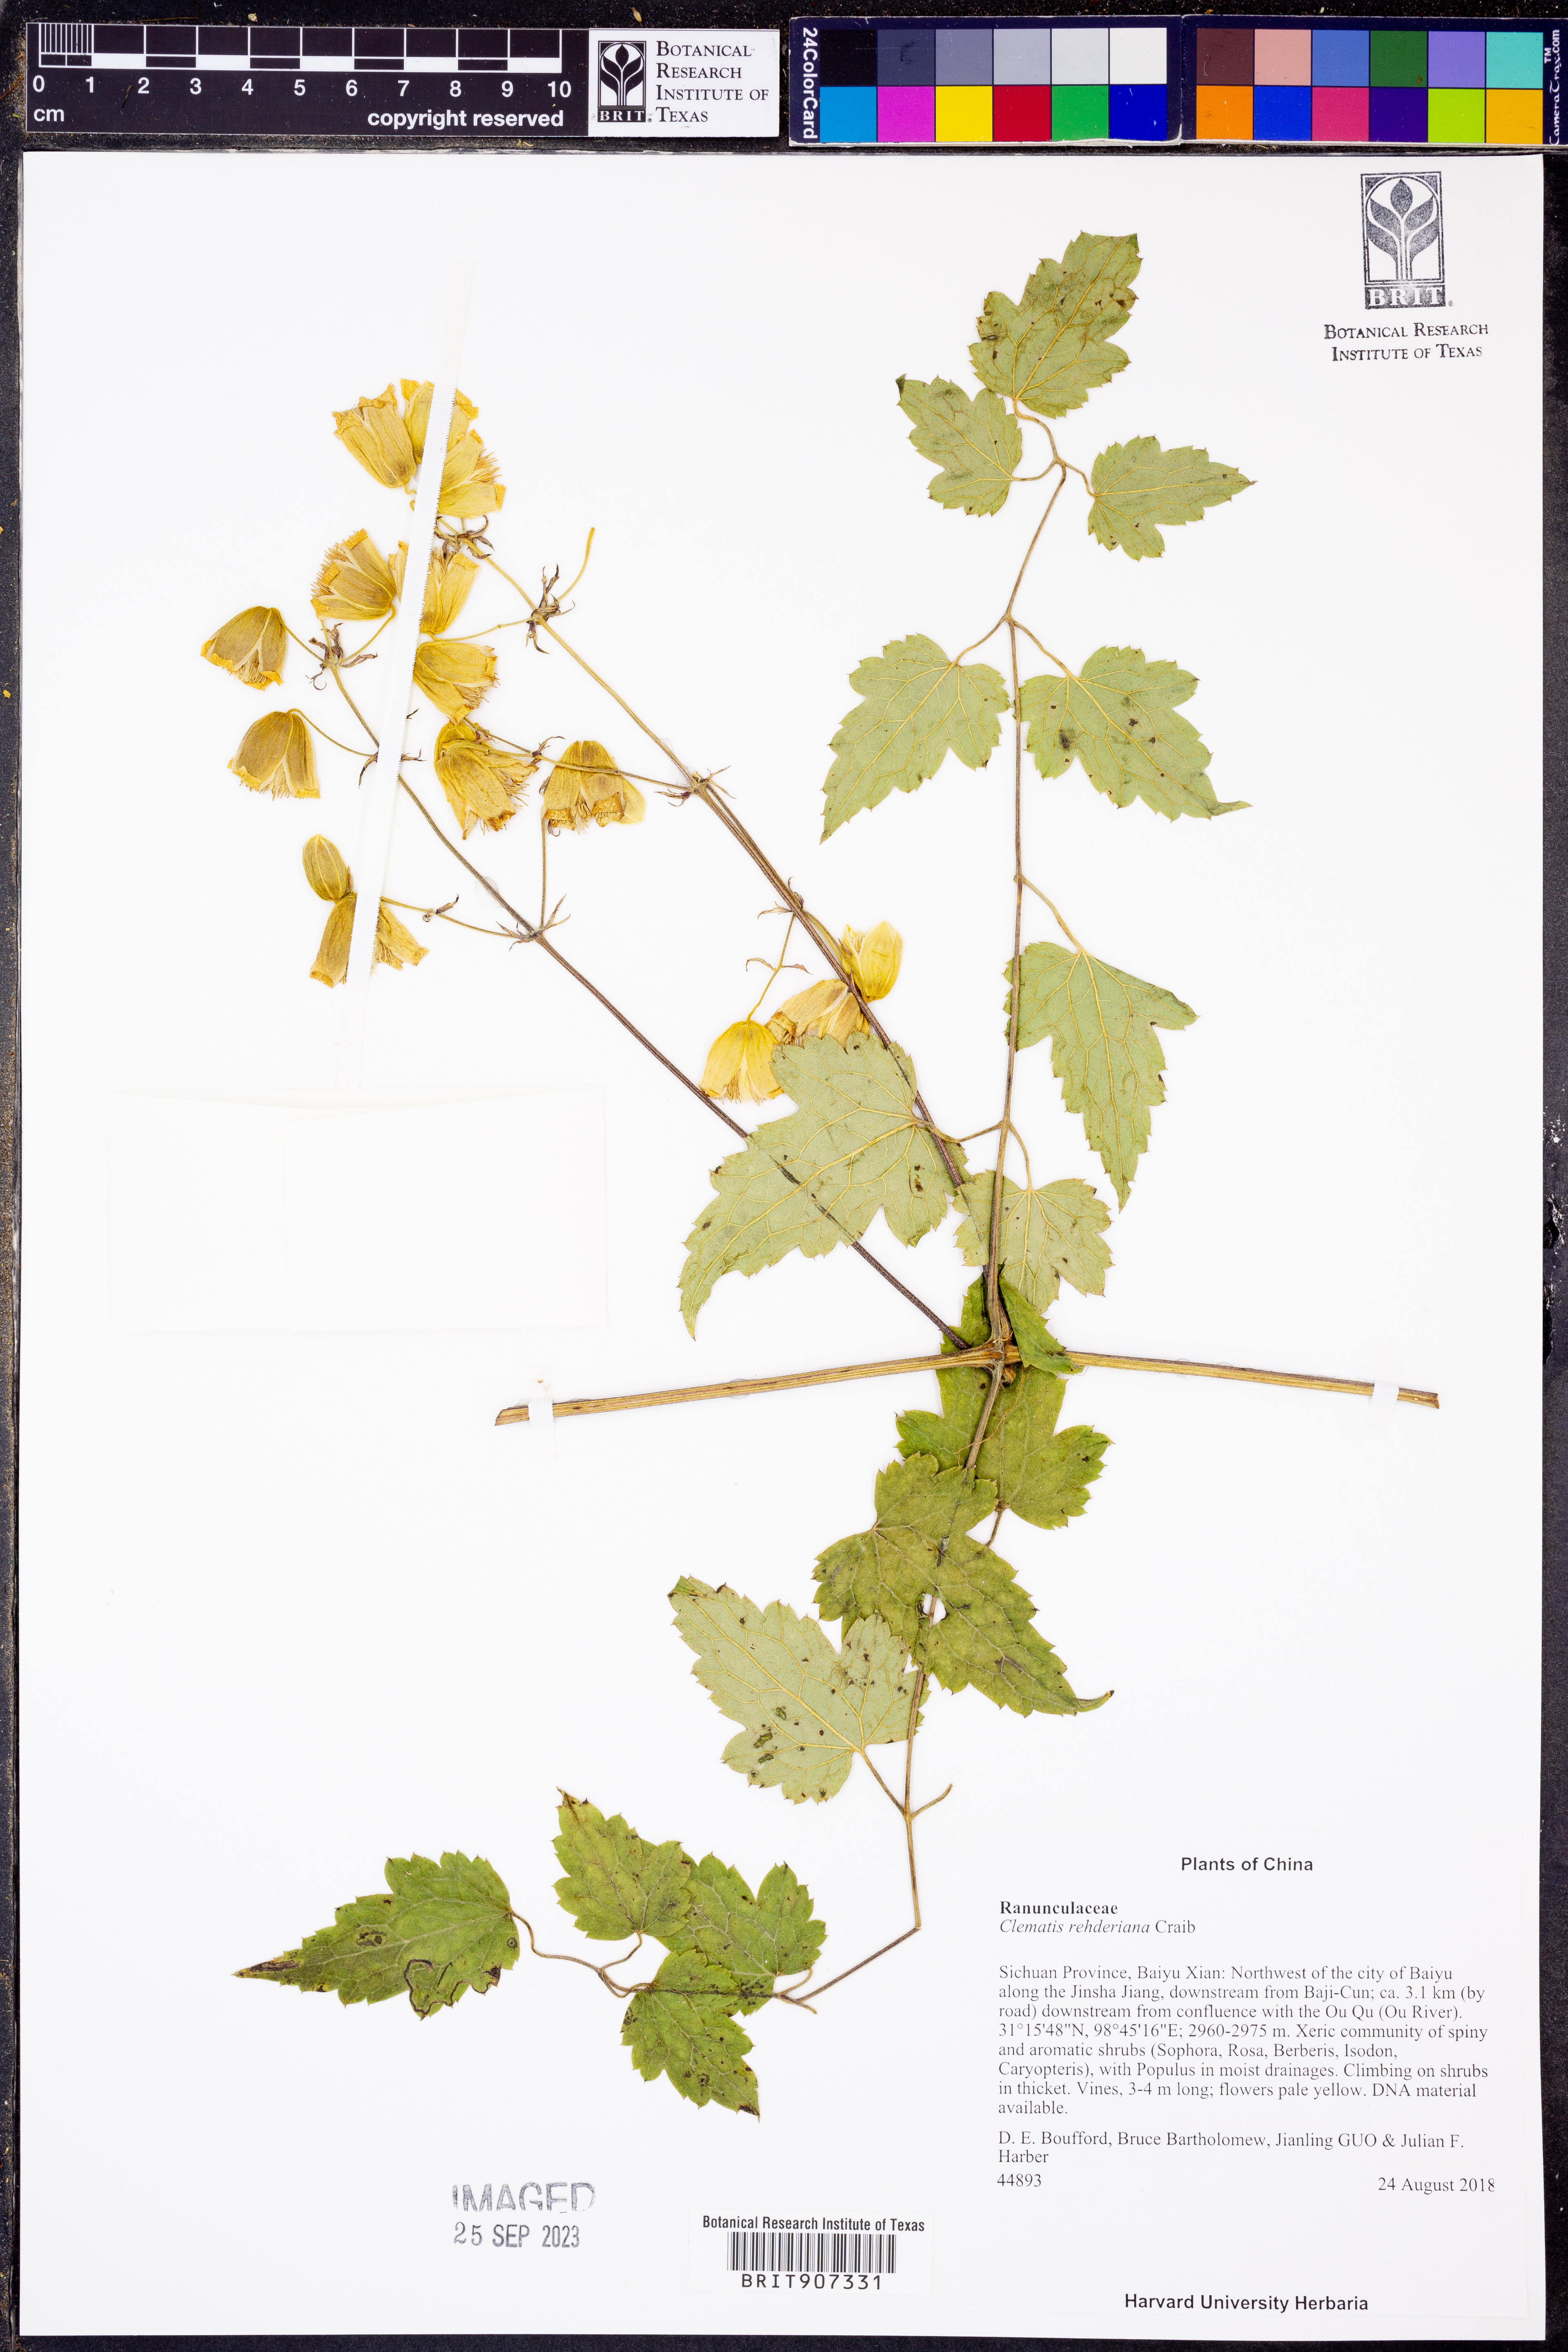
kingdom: Plantae
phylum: Tracheophyta
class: Magnoliopsida
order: Ranunculales
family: Ranunculaceae
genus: Clematis
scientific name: Clematis rehderiana
